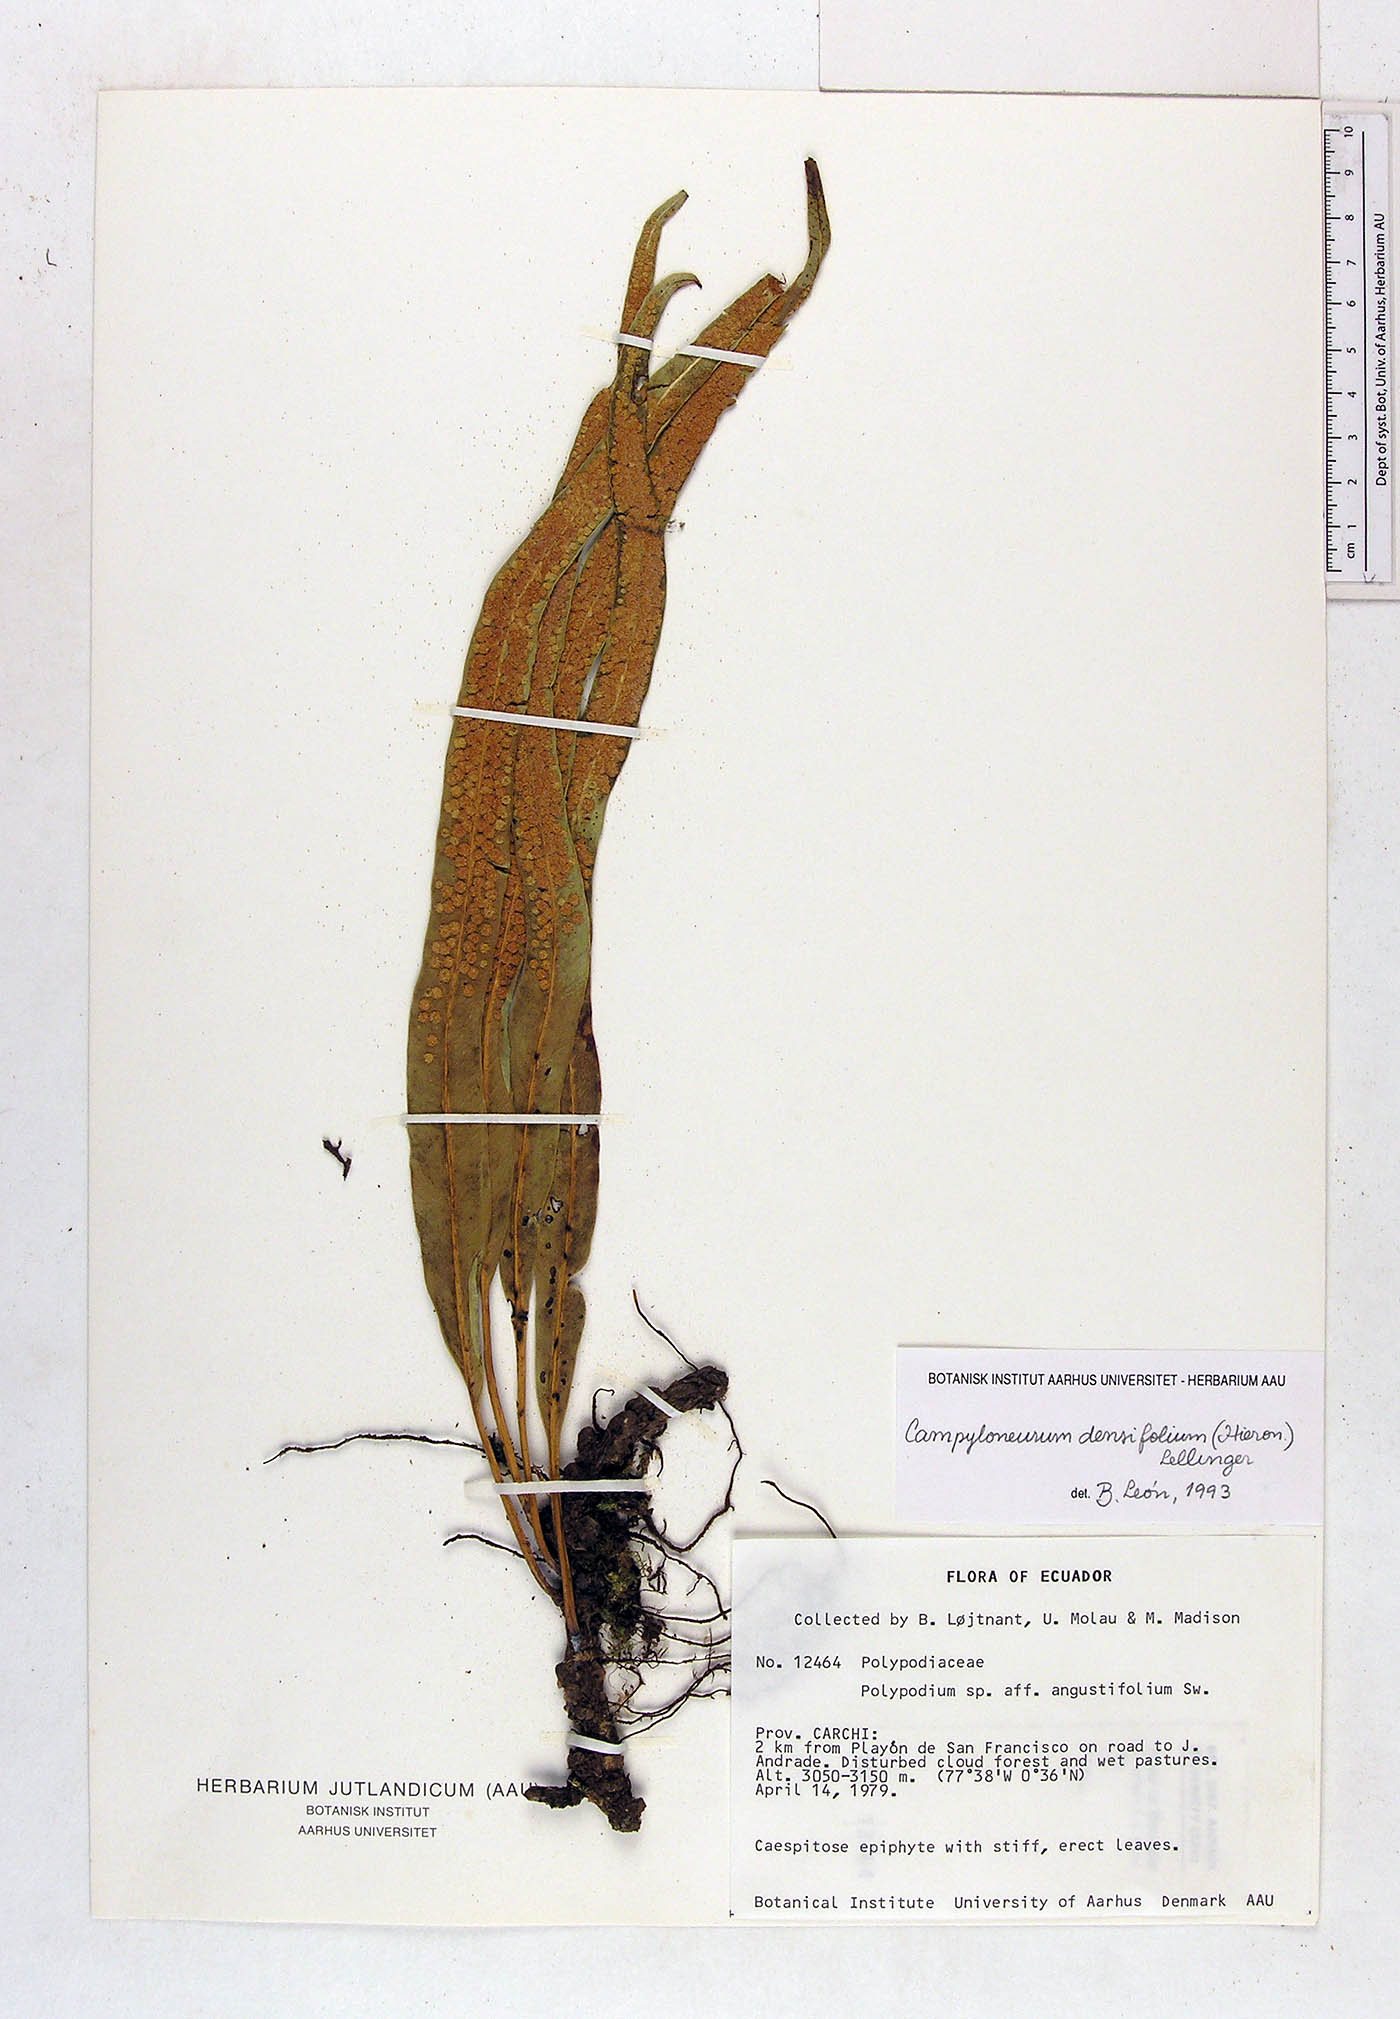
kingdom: Plantae
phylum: Tracheophyta
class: Polypodiopsida
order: Polypodiales
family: Polypodiaceae
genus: Campyloneurum
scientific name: Campyloneurum densifolium
